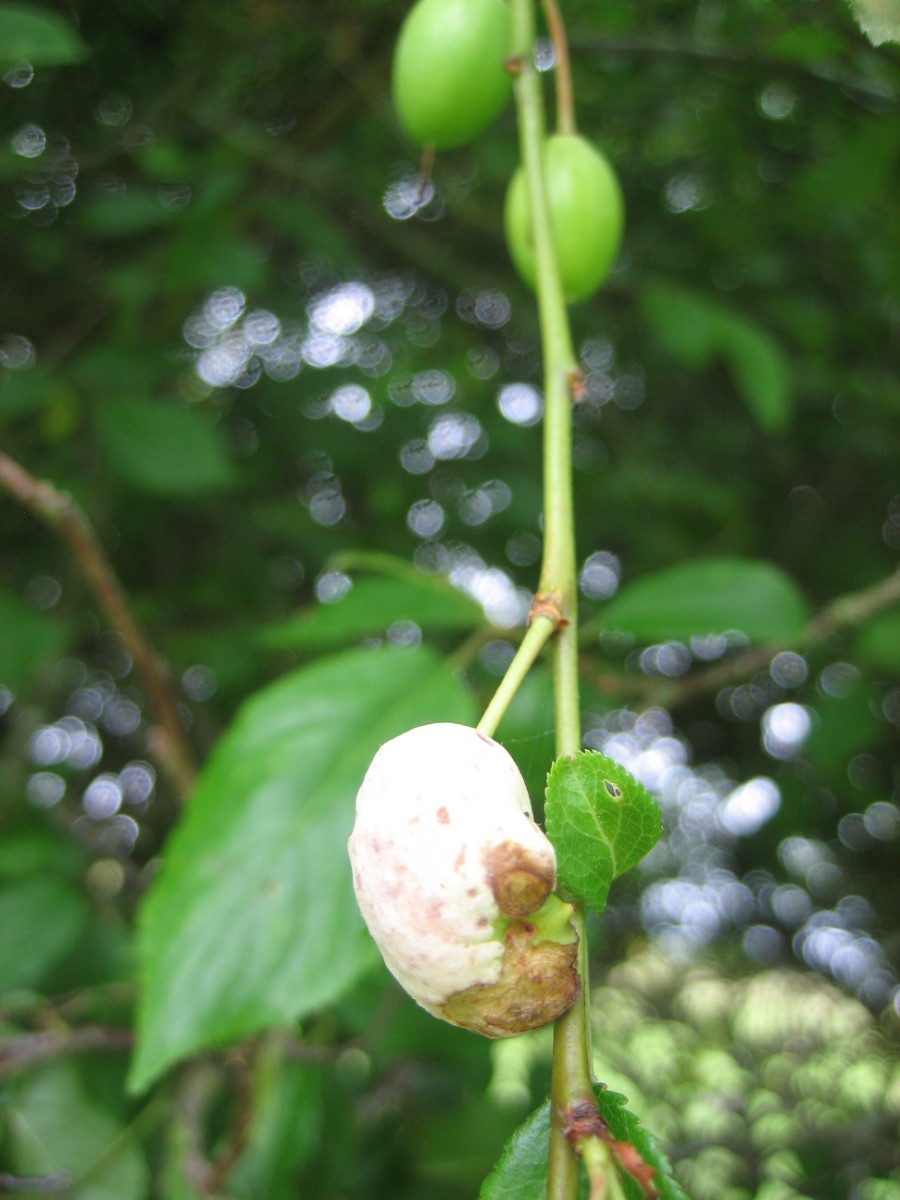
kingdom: Fungi
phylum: Ascomycota
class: Taphrinomycetes
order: Taphrinales
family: Taphrinaceae
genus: Taphrina
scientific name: Taphrina pruni
